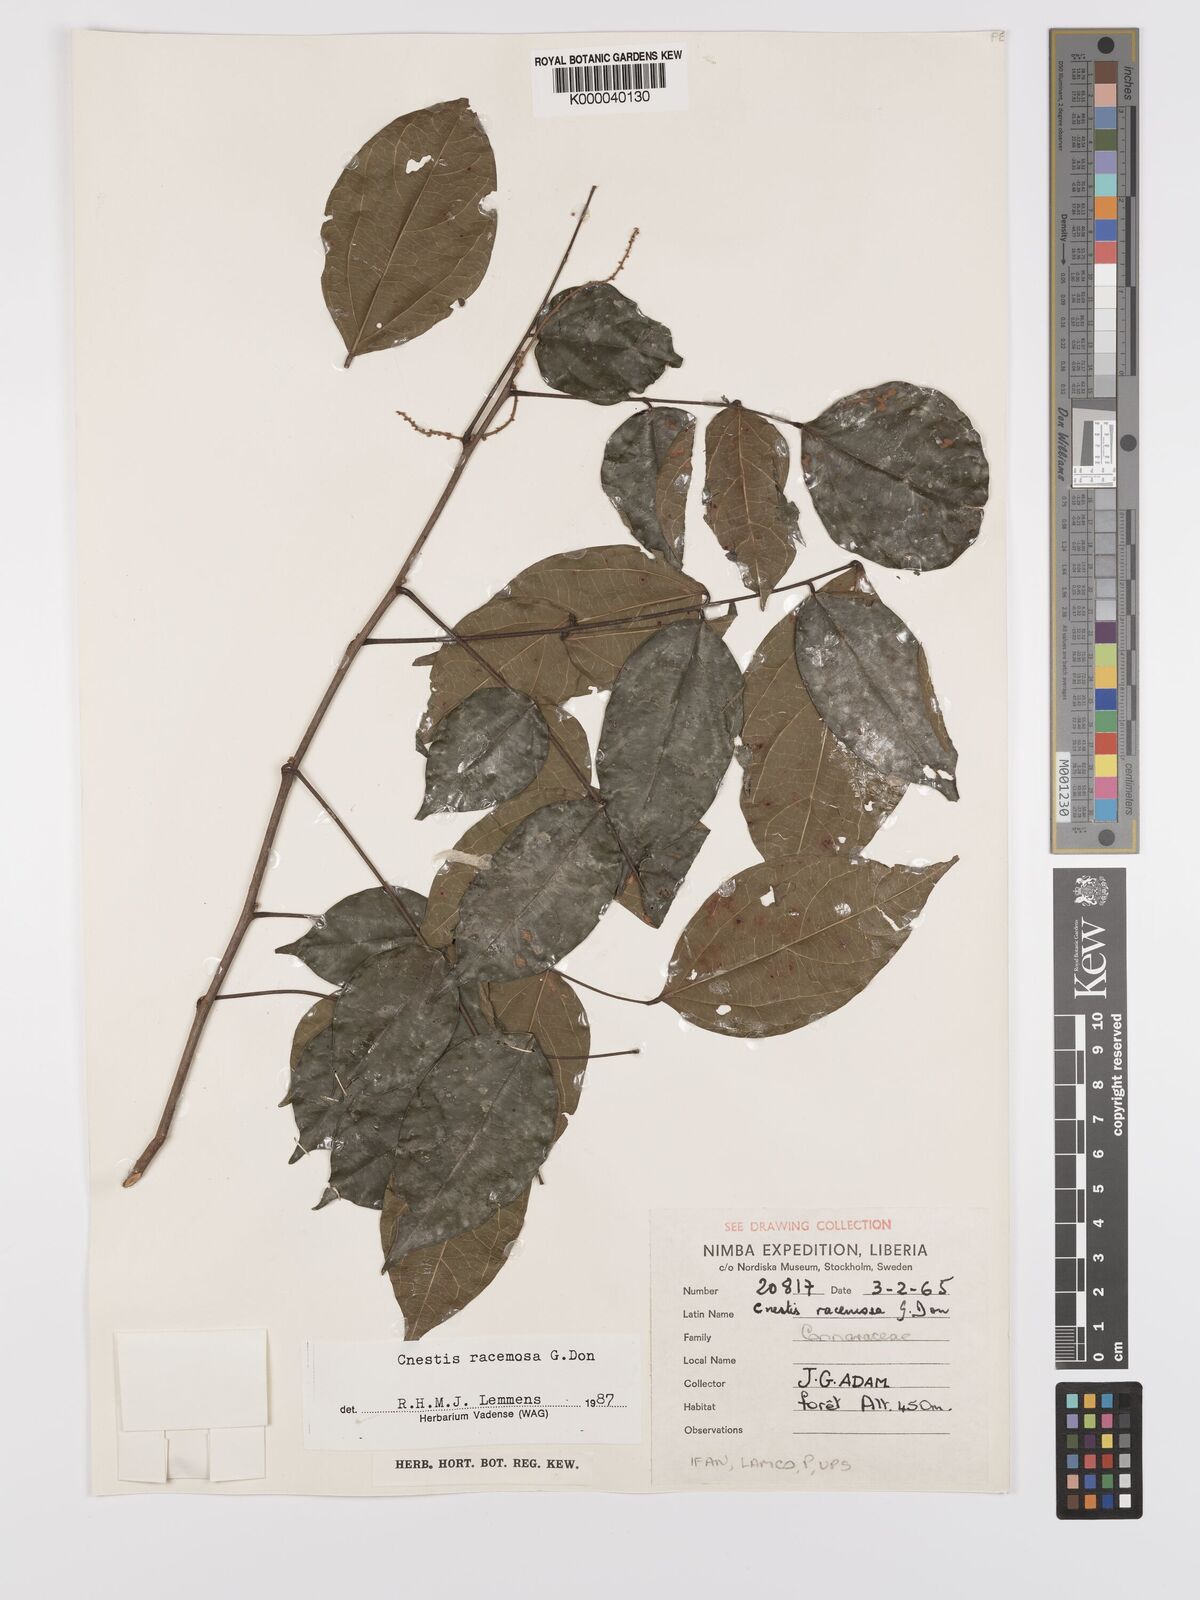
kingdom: Plantae
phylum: Tracheophyta
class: Magnoliopsida
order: Oxalidales
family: Connaraceae
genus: Cnestis
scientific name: Cnestis racemosa
